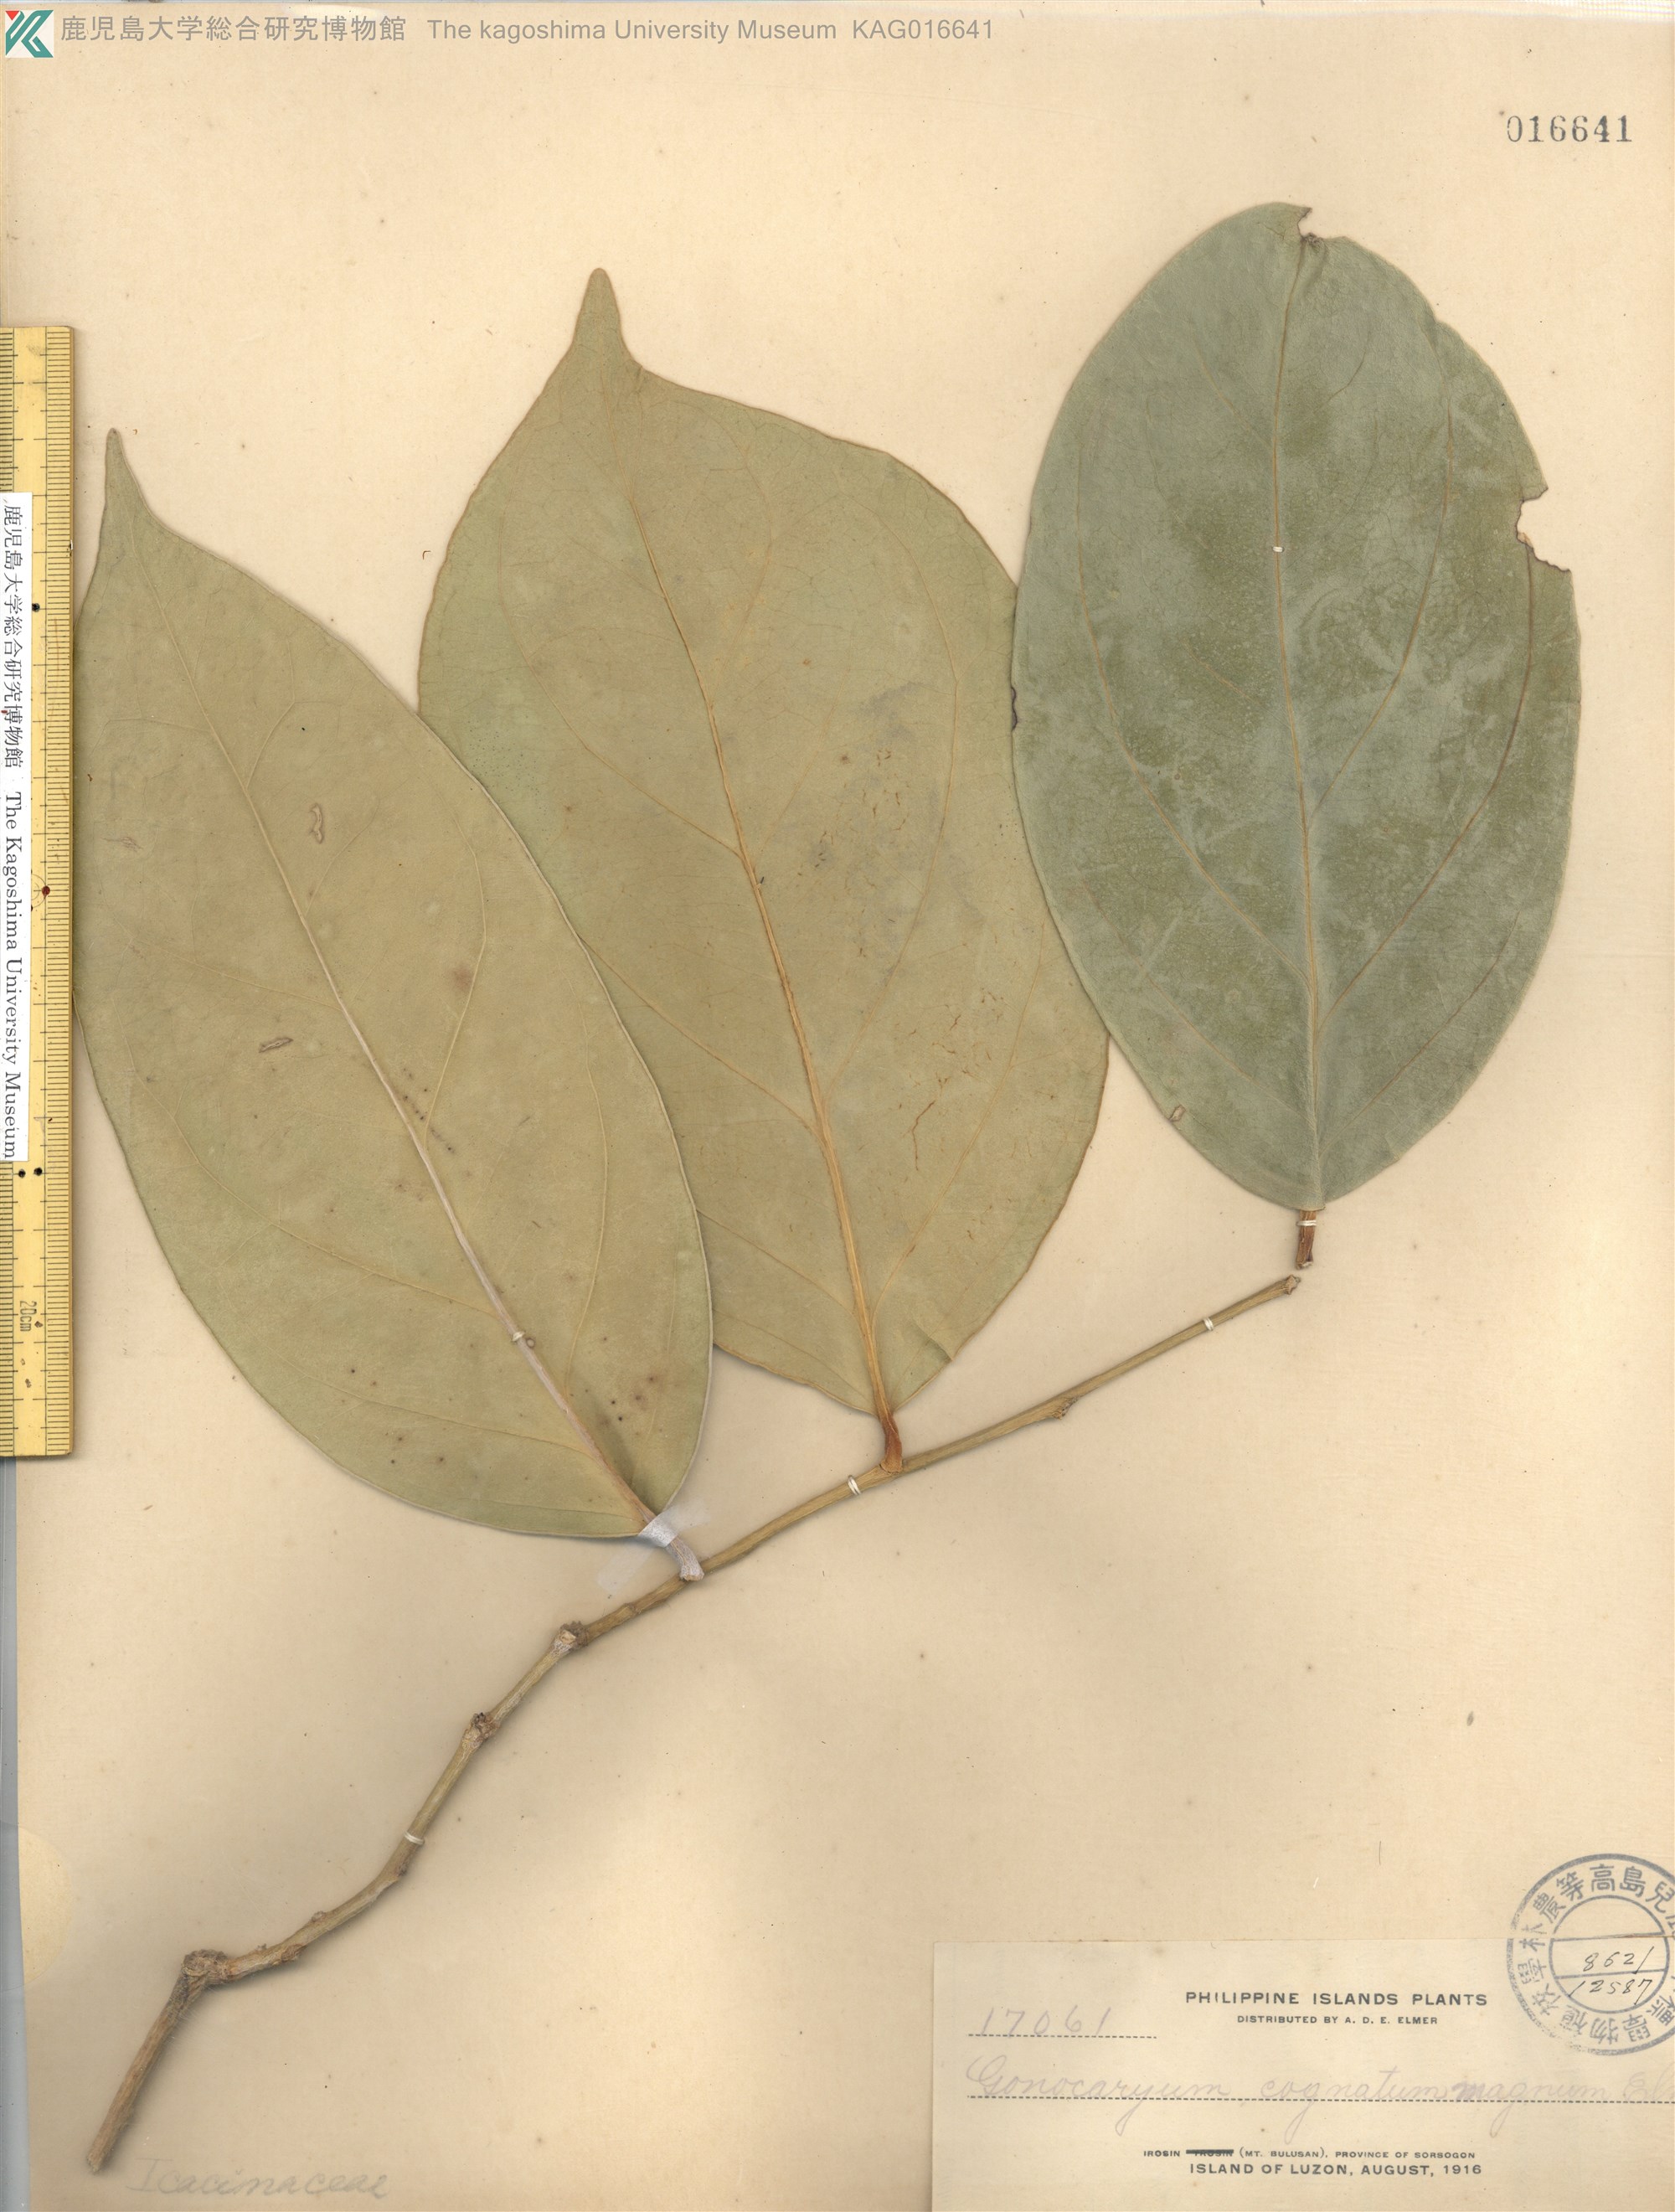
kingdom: Plantae
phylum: Tracheophyta
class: Magnoliopsida
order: Cardiopteridales
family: Cardiopteridaceae
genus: Gonocaryum
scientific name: Gonocaryum calleryanum
